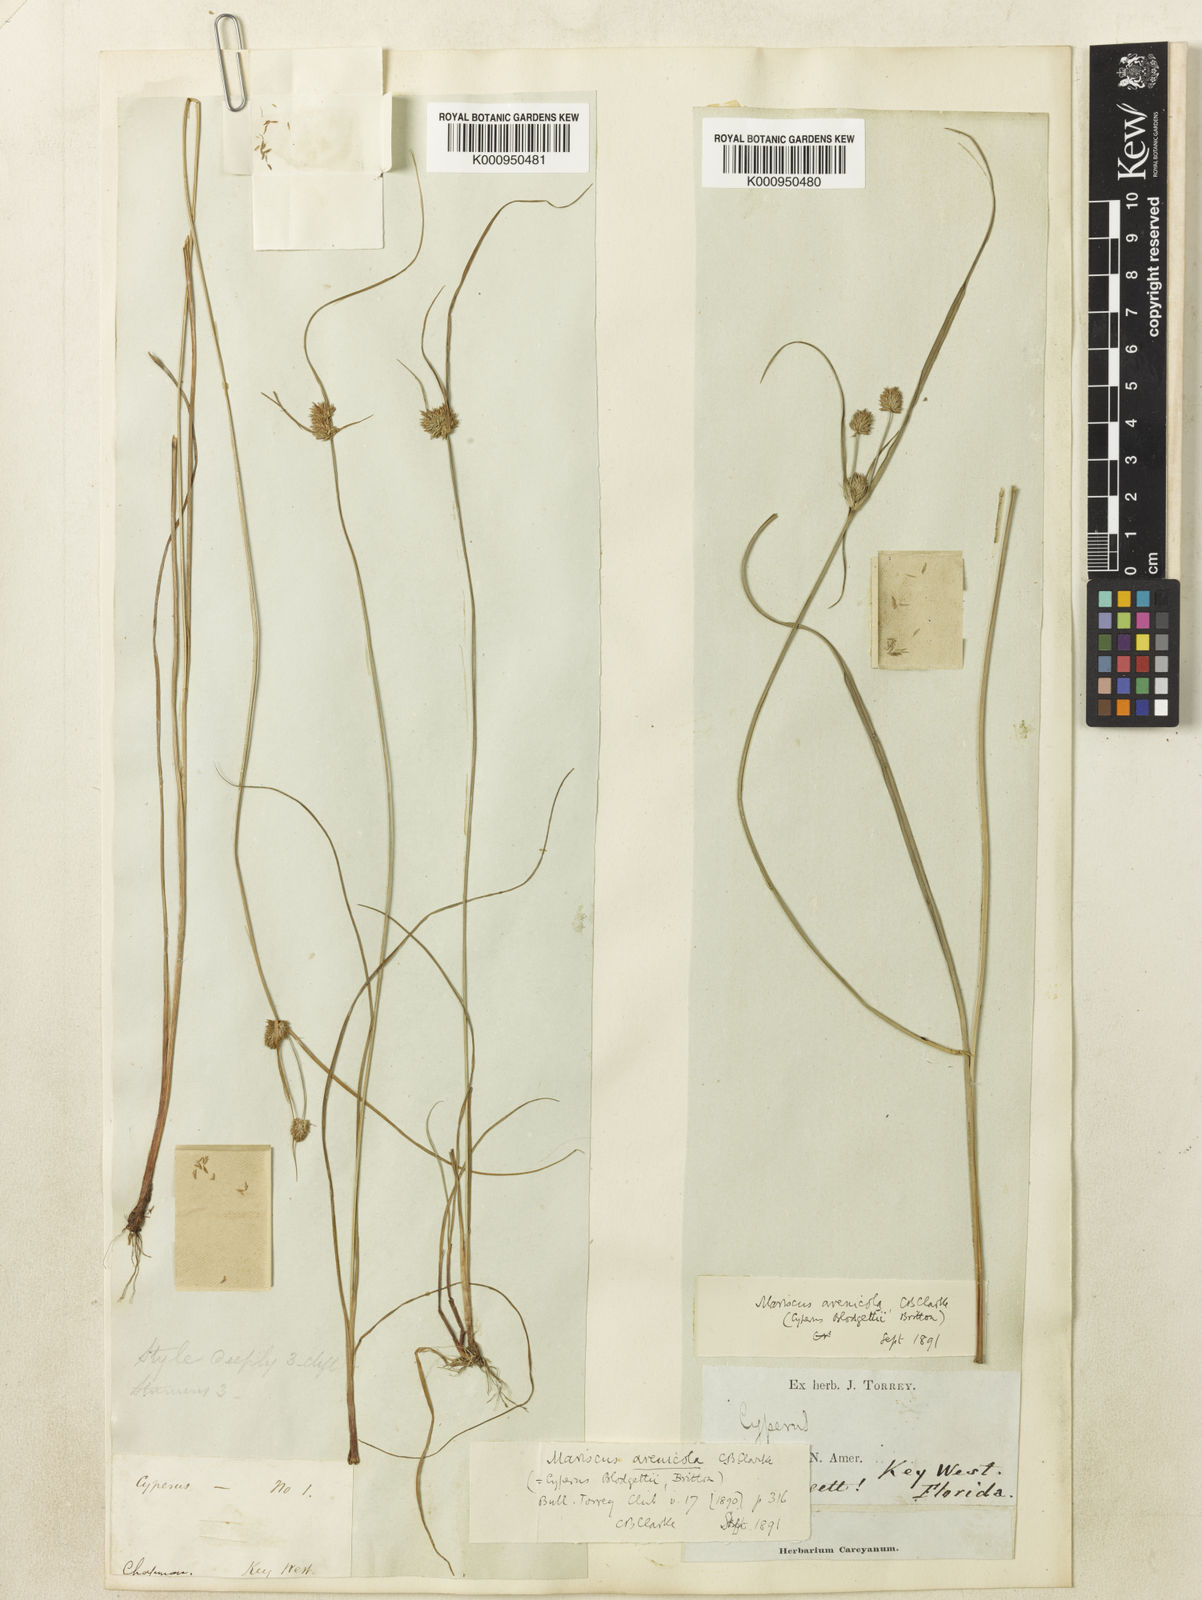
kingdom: Plantae
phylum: Tracheophyta
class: Liliopsida
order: Poales
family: Cyperaceae
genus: Cyperus
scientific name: Cyperus retrorsus
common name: Pinebarren flat sedge
